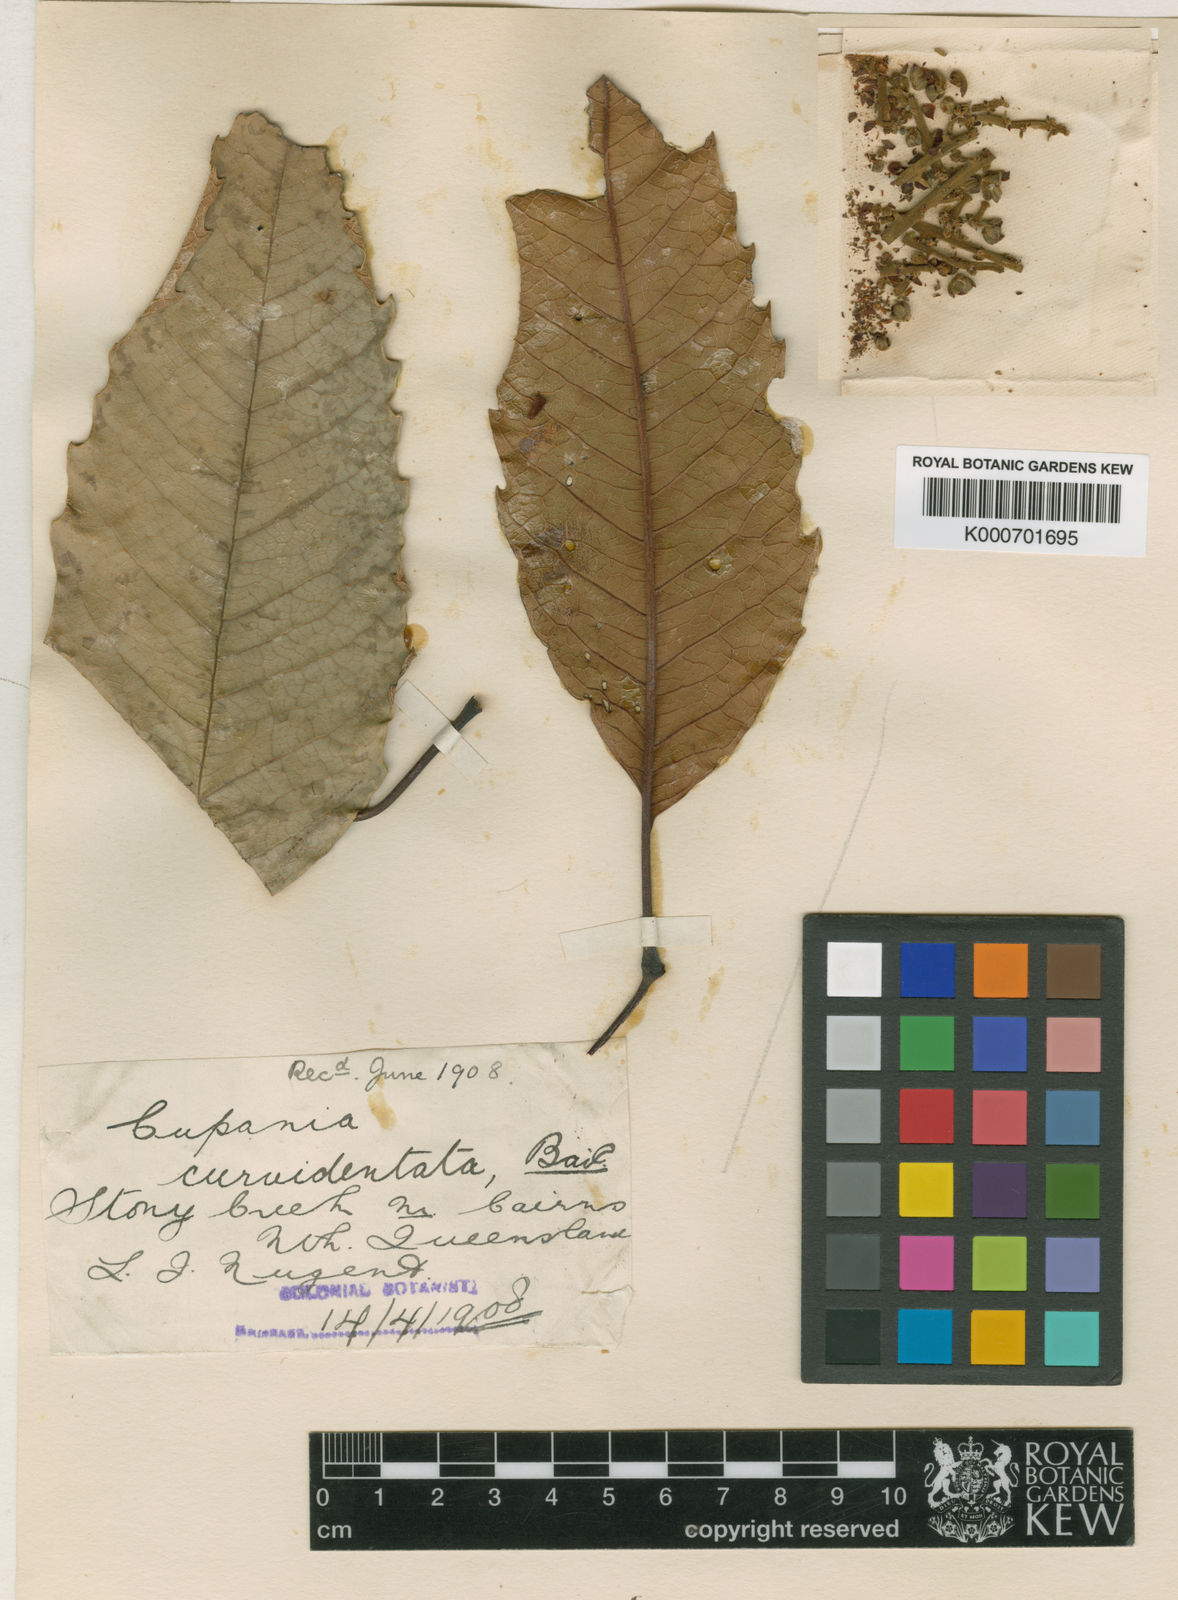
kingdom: Plantae
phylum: Tracheophyta
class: Magnoliopsida
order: Sapindales
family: Sapindaceae
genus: Cupaniopsis
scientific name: Cupaniopsis flagelliformis
